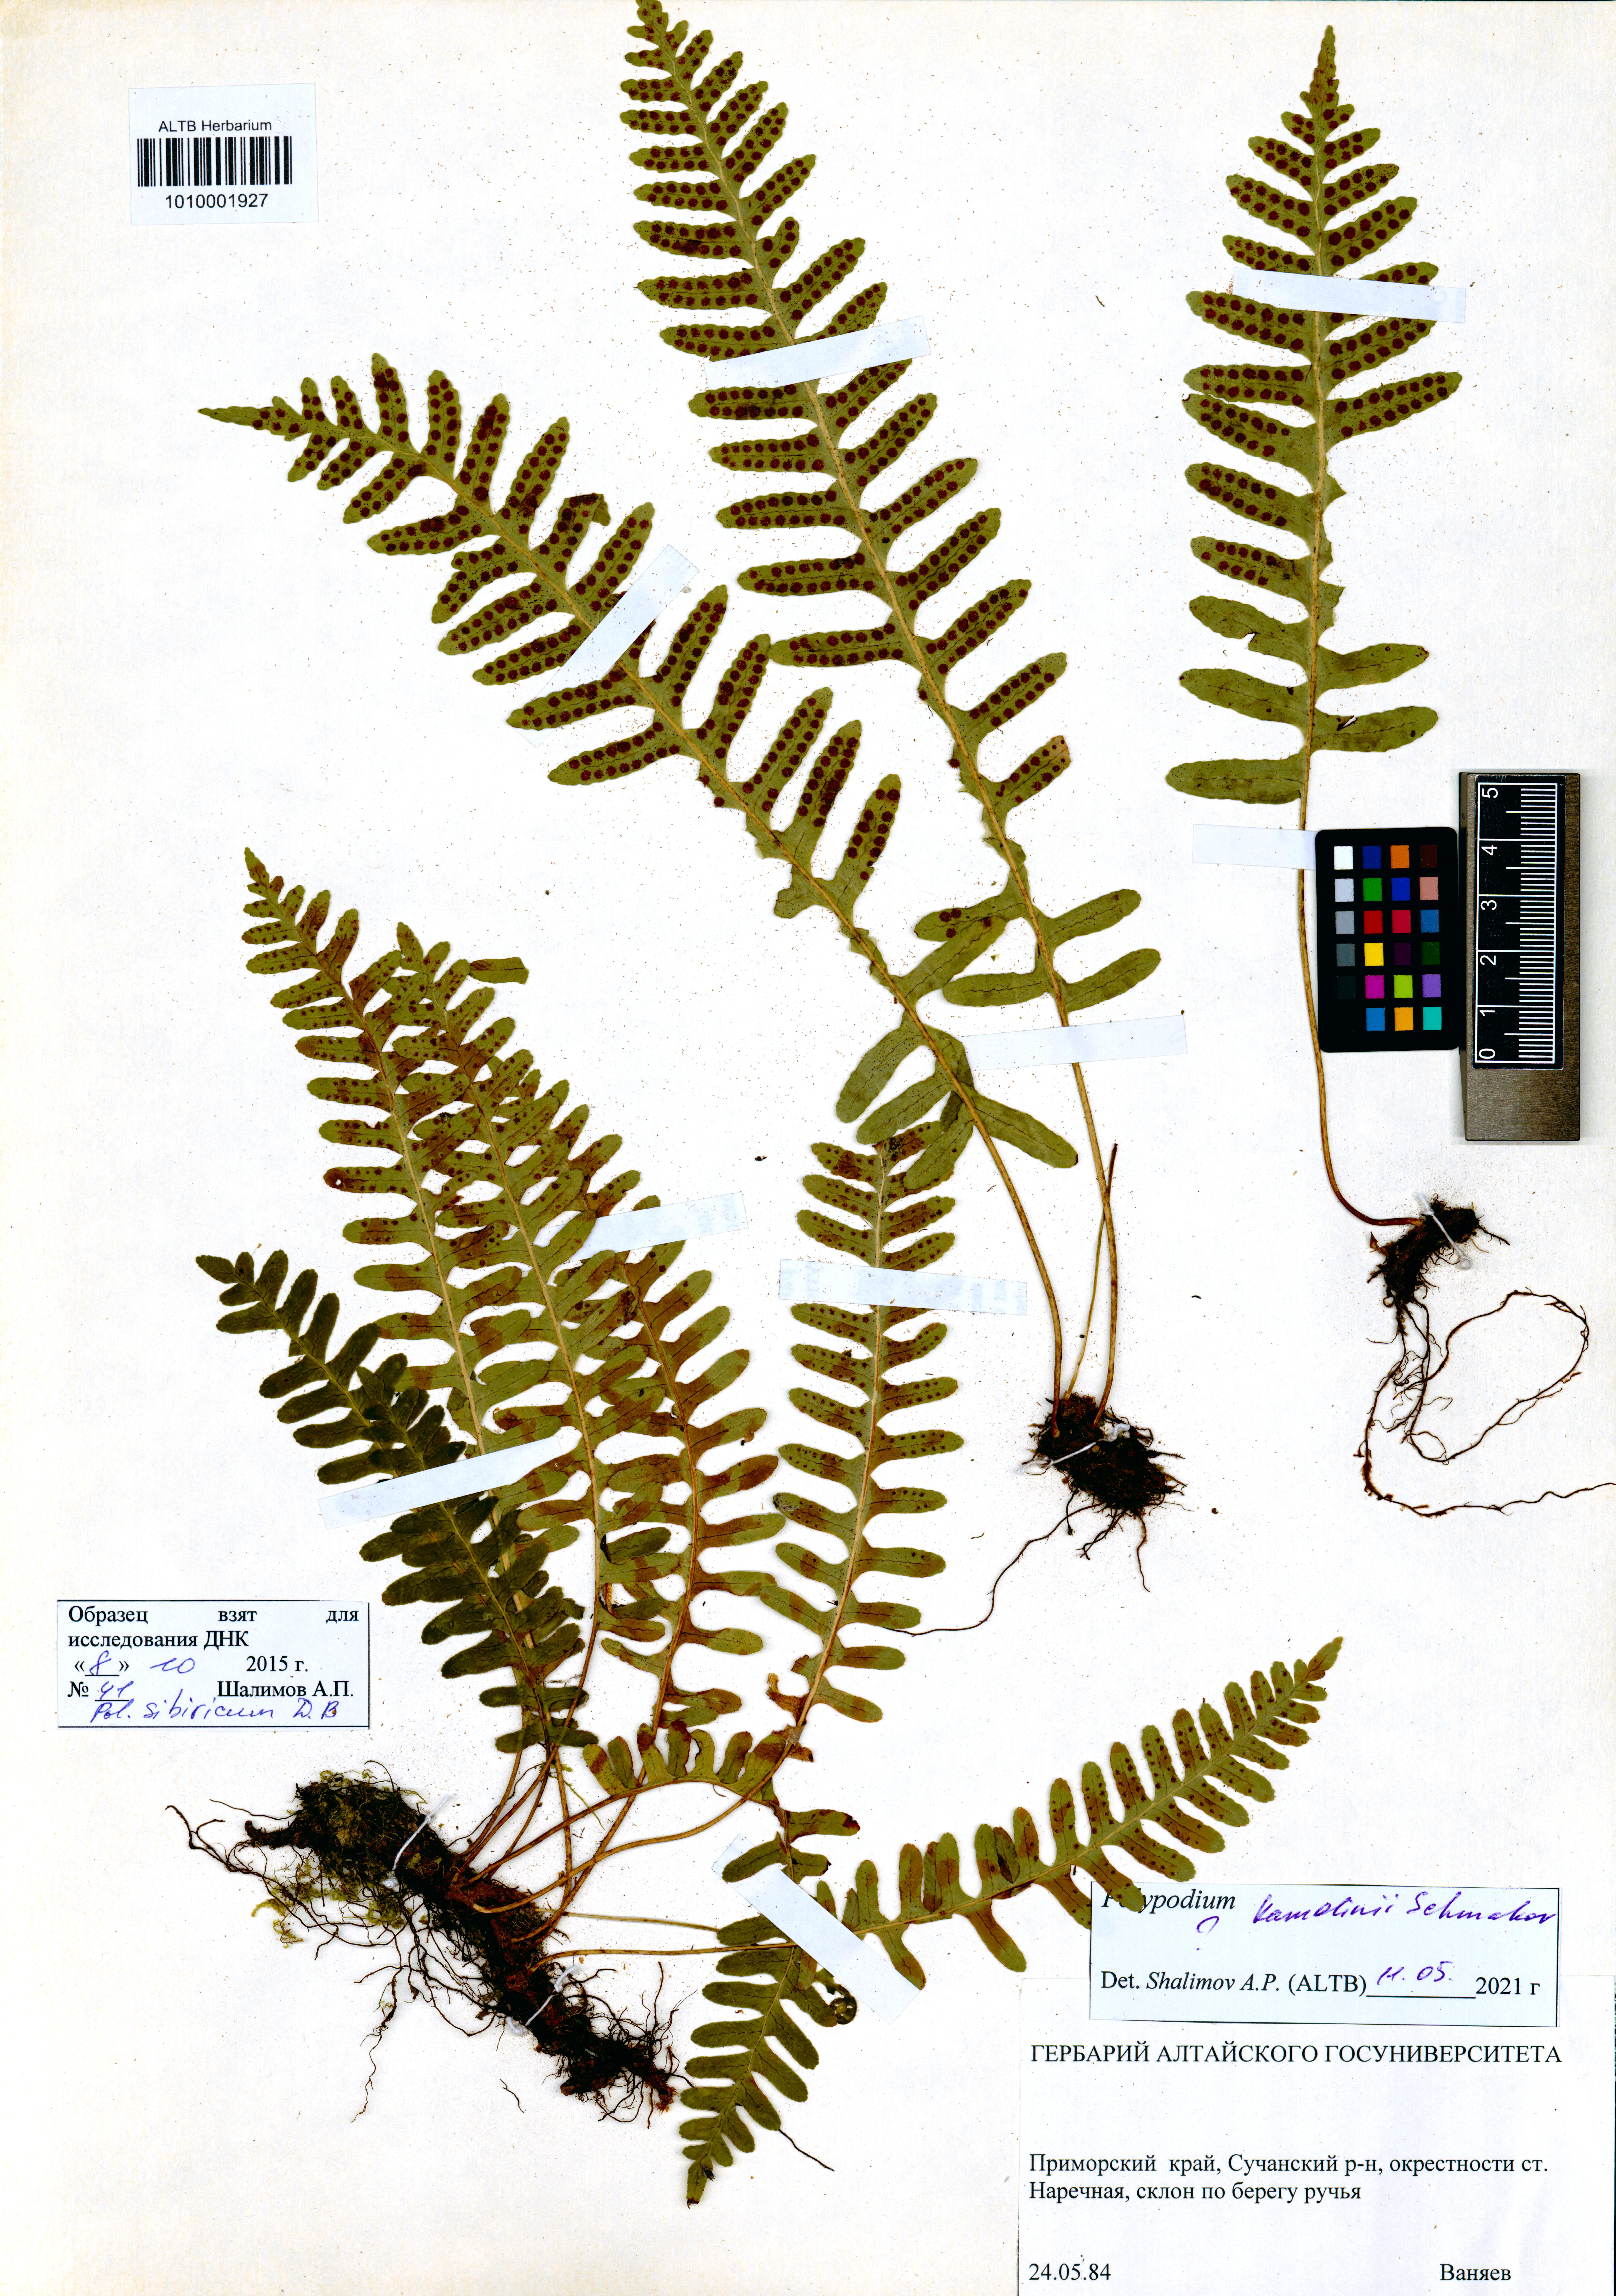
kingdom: Plantae
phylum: Tracheophyta
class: Polypodiopsida
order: Polypodiales
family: Polypodiaceae
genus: Polypodium
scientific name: Polypodium kamelinii
